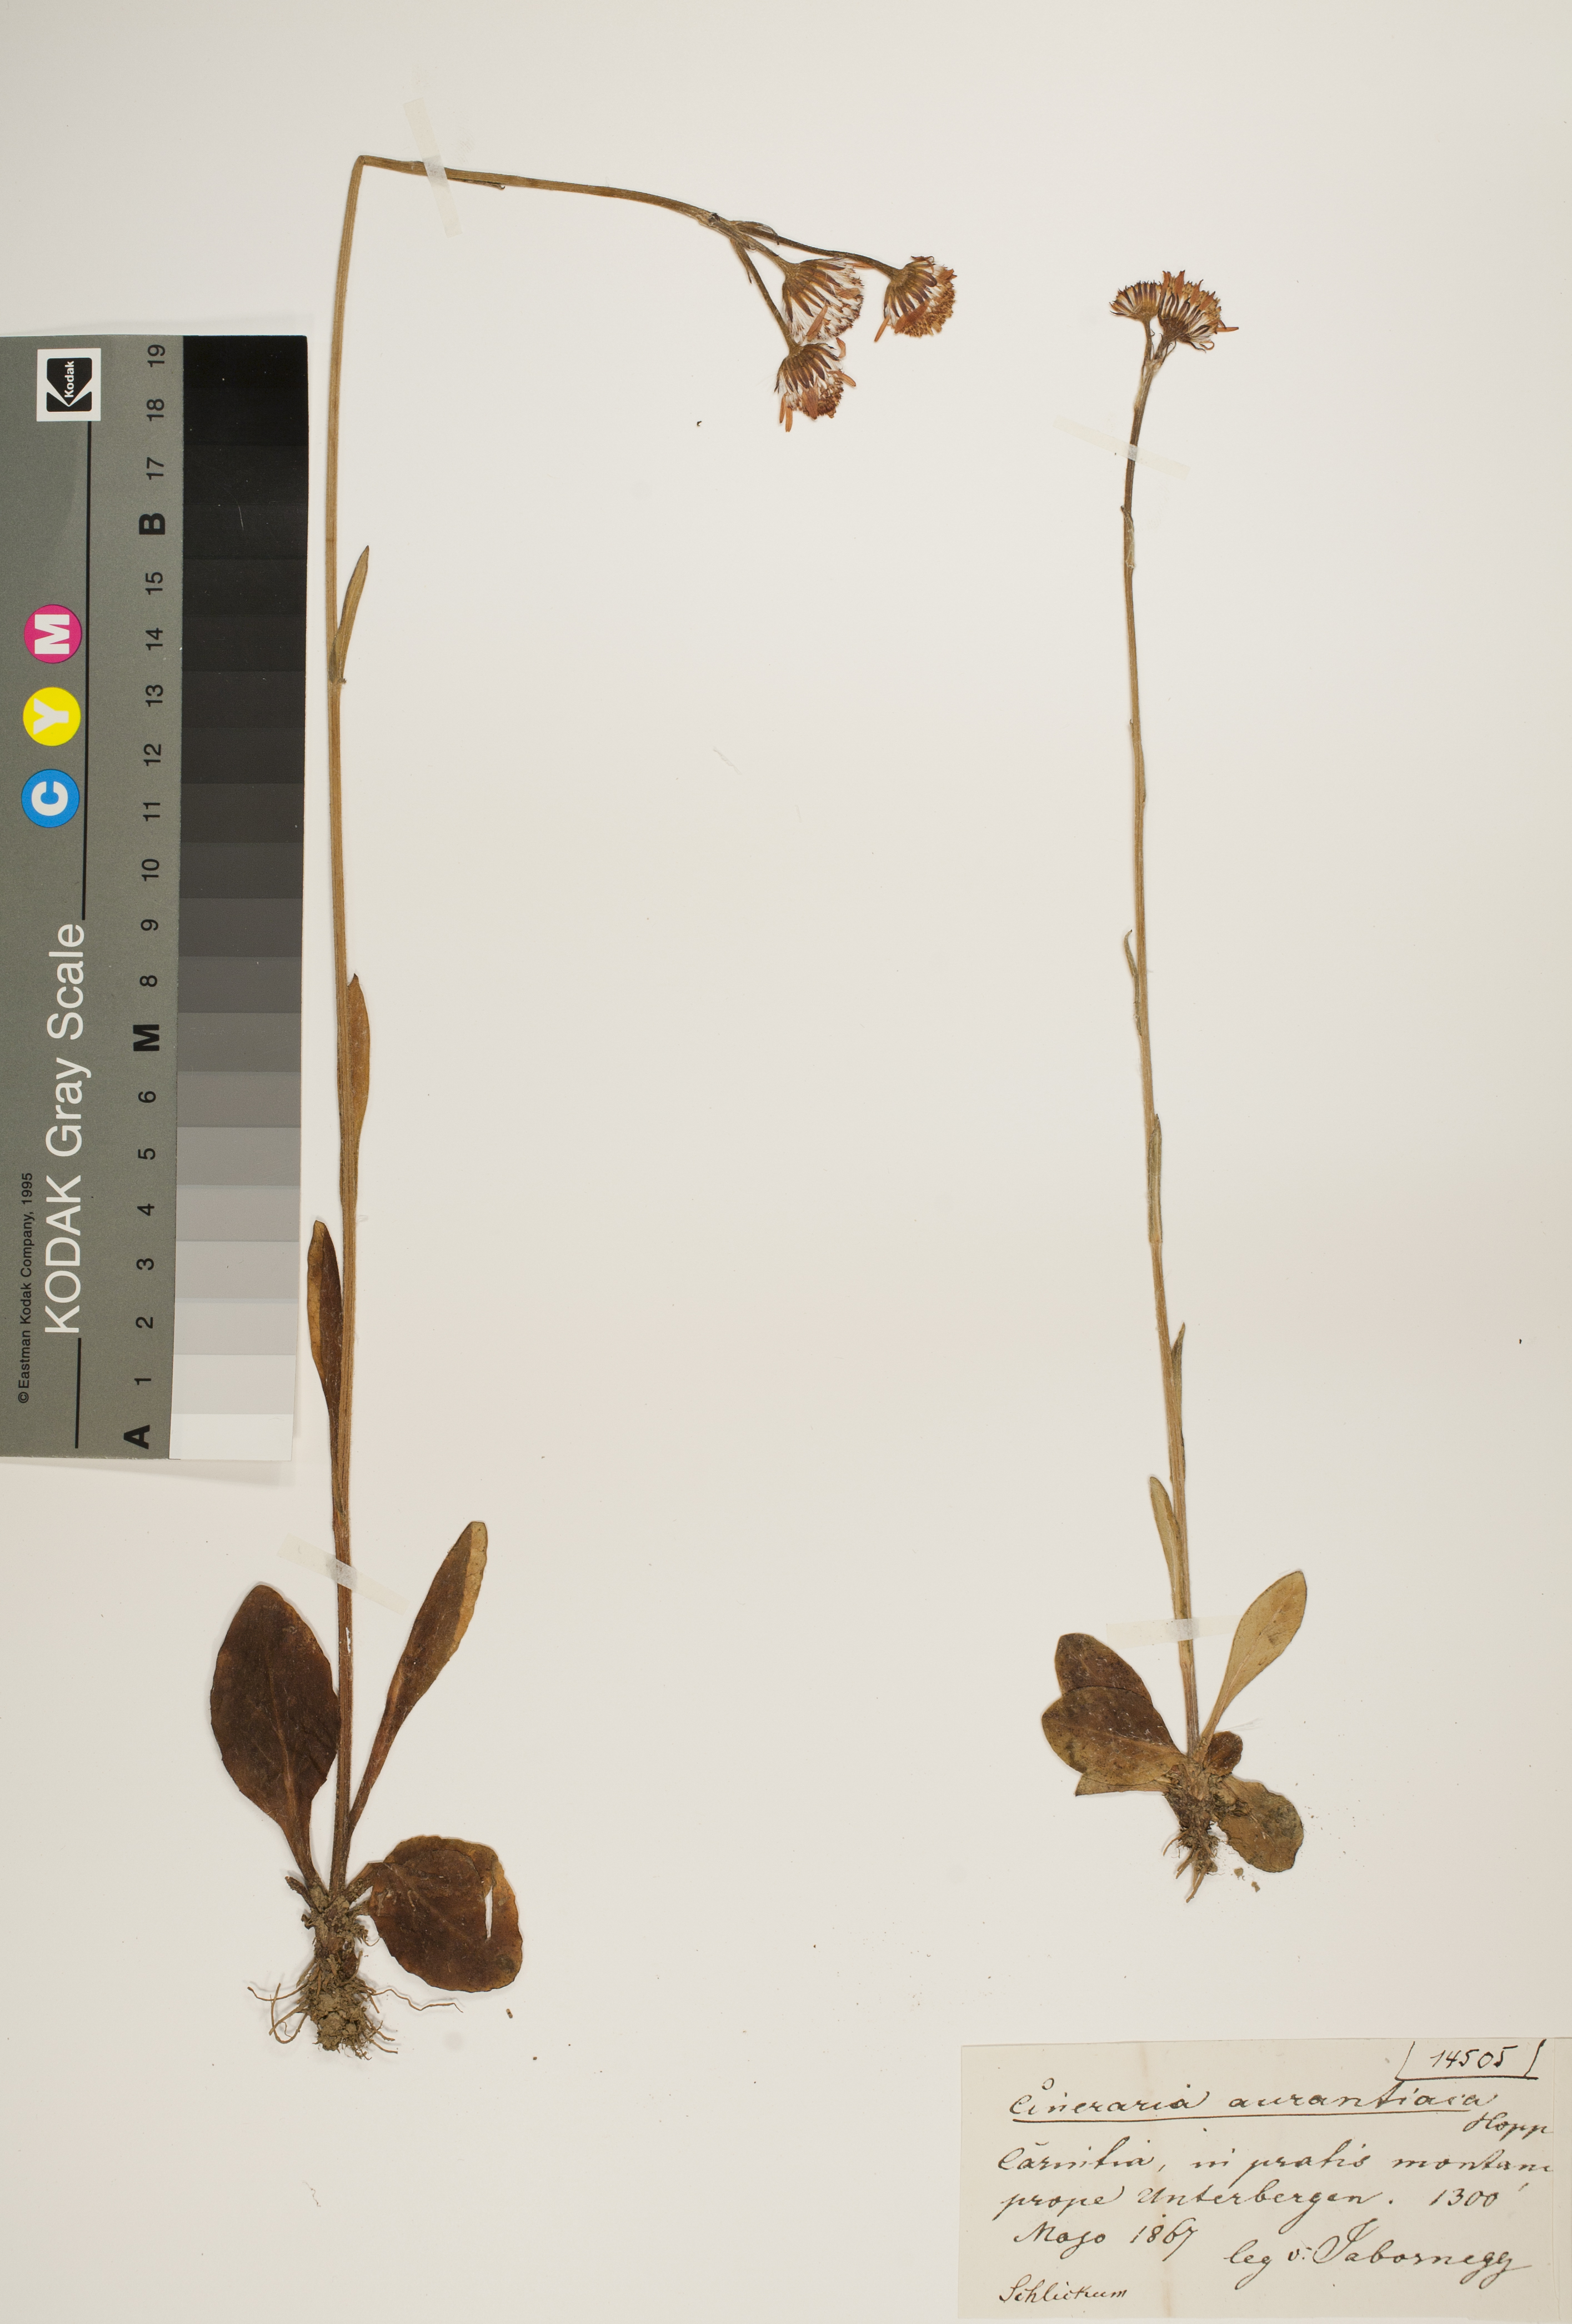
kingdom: Plantae
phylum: Tracheophyta
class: Magnoliopsida
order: Asterales
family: Asteraceae
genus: Tephroseris
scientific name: Tephroseris integrifolia
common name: Field fleawort
